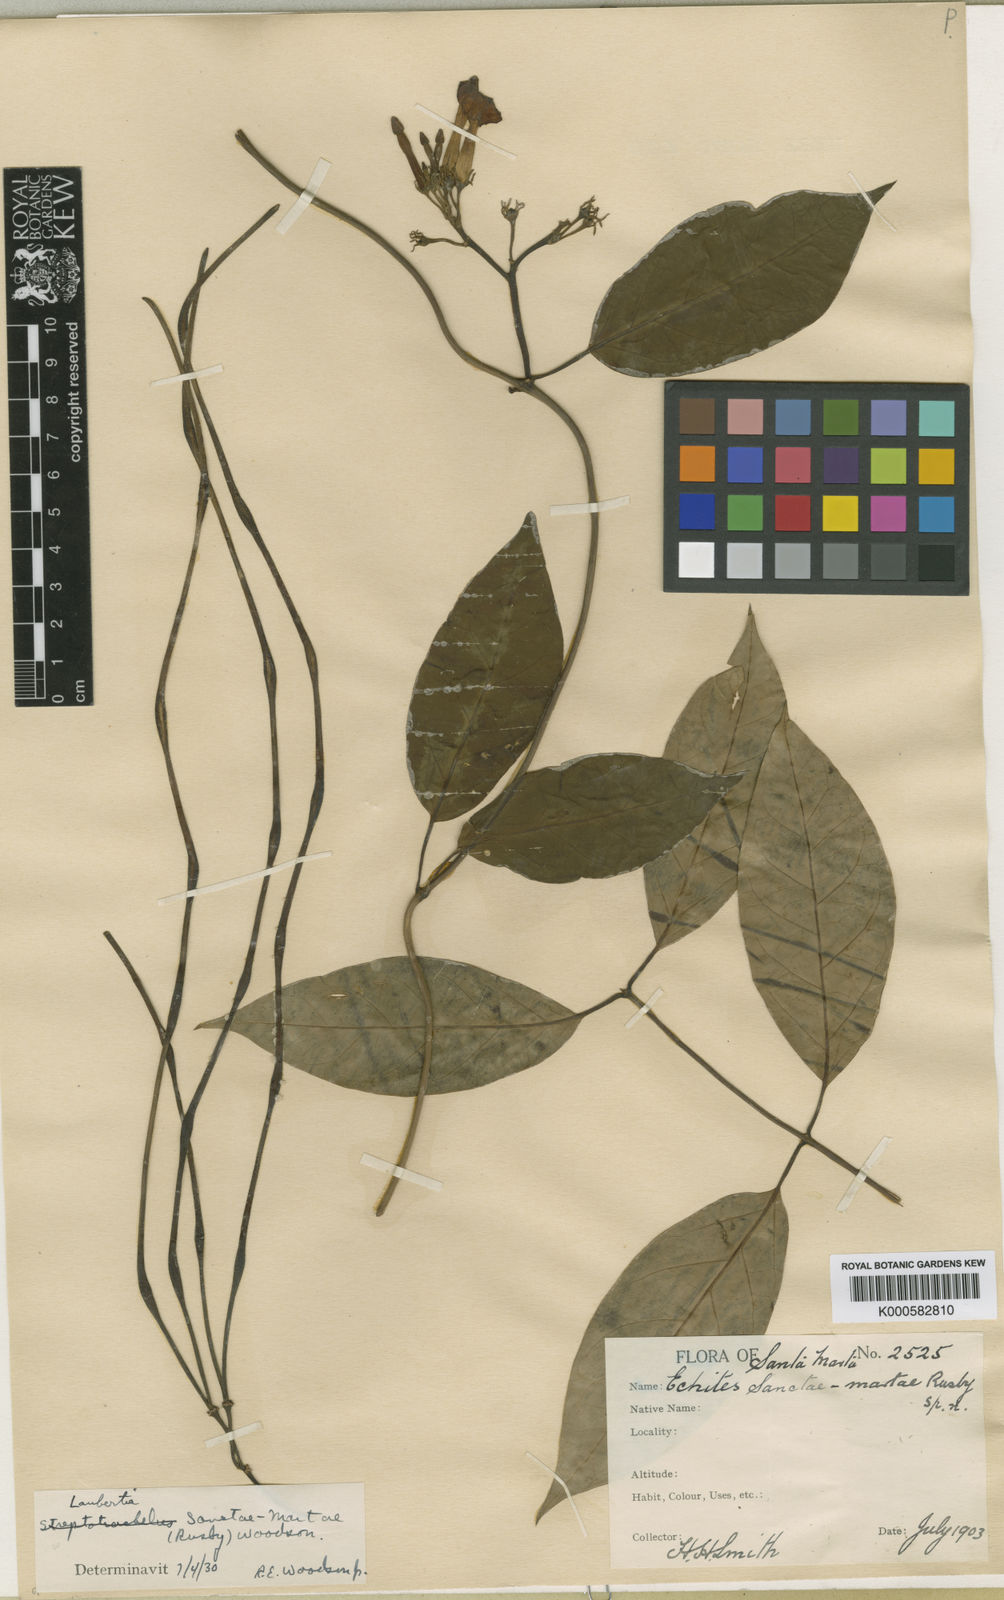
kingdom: Plantae
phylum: Tracheophyta
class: Magnoliopsida
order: Gentianales
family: Apocynaceae
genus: Laubertia
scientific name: Laubertia boissieri
